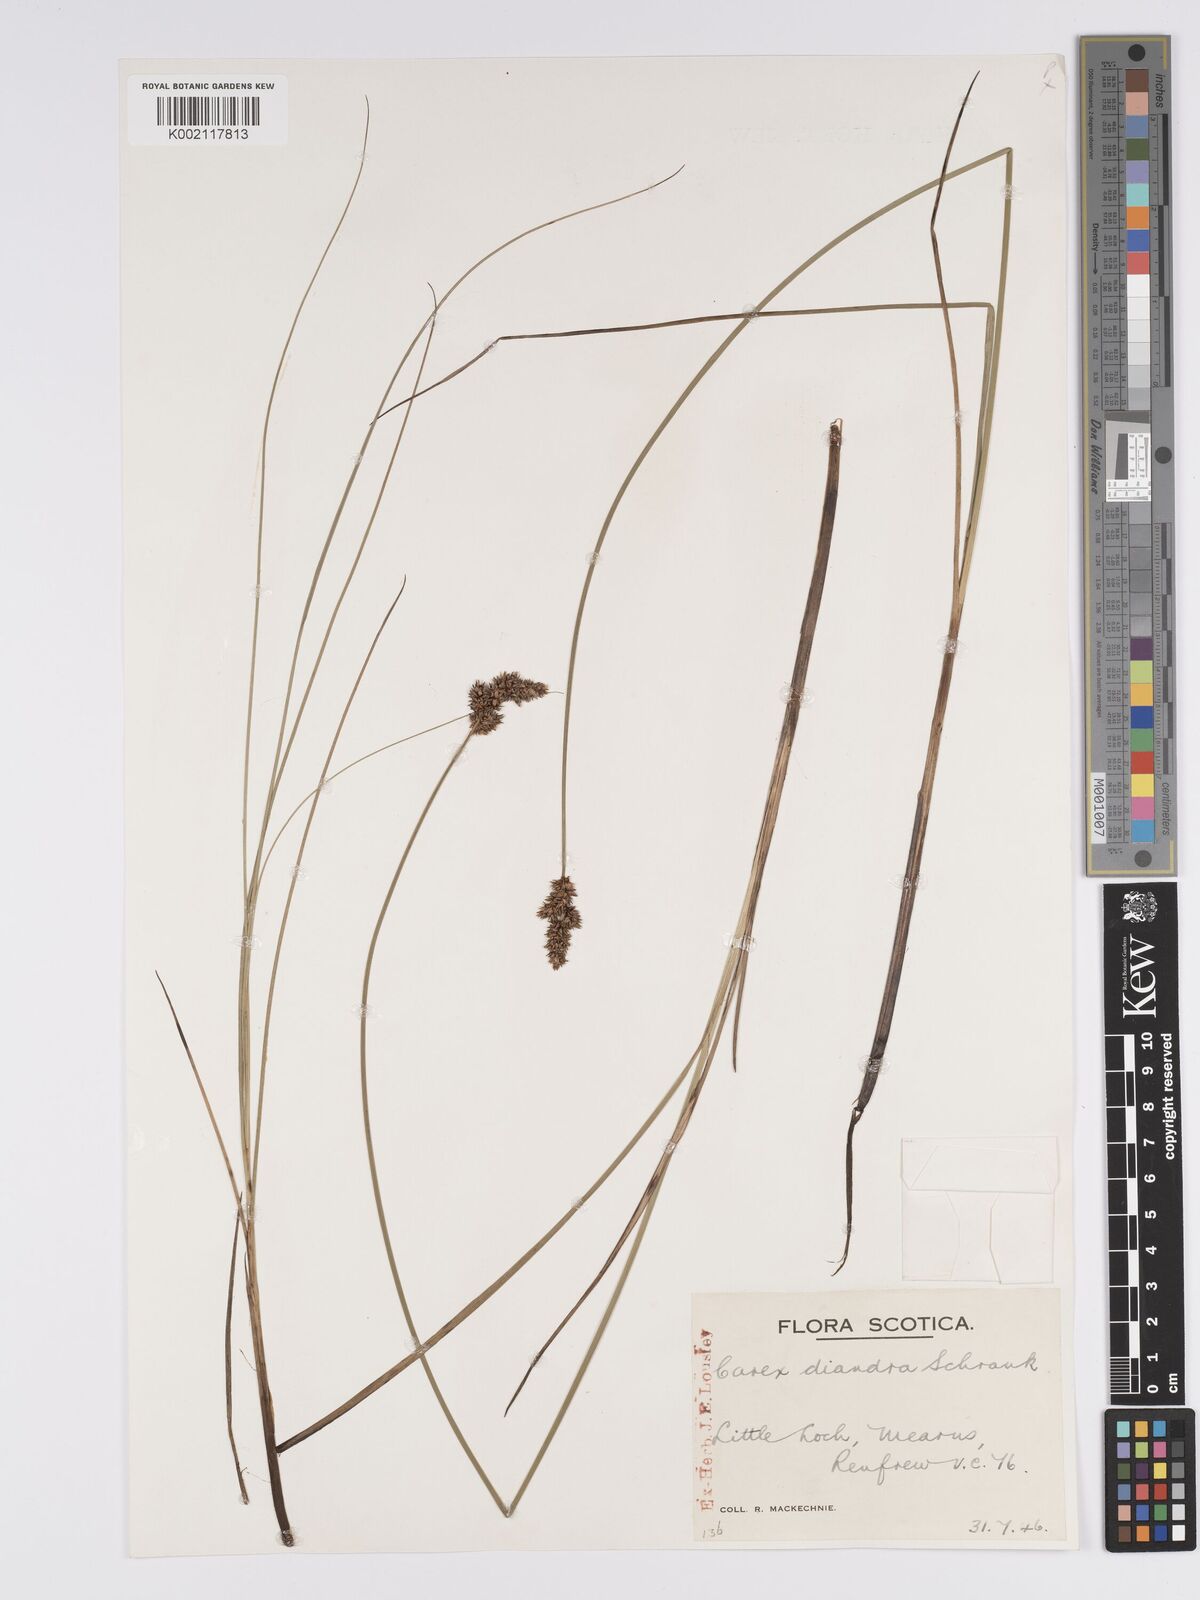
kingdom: Plantae
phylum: Tracheophyta
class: Liliopsida
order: Poales
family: Cyperaceae
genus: Carex
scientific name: Carex diandra
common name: Lesser tussock-sedge
